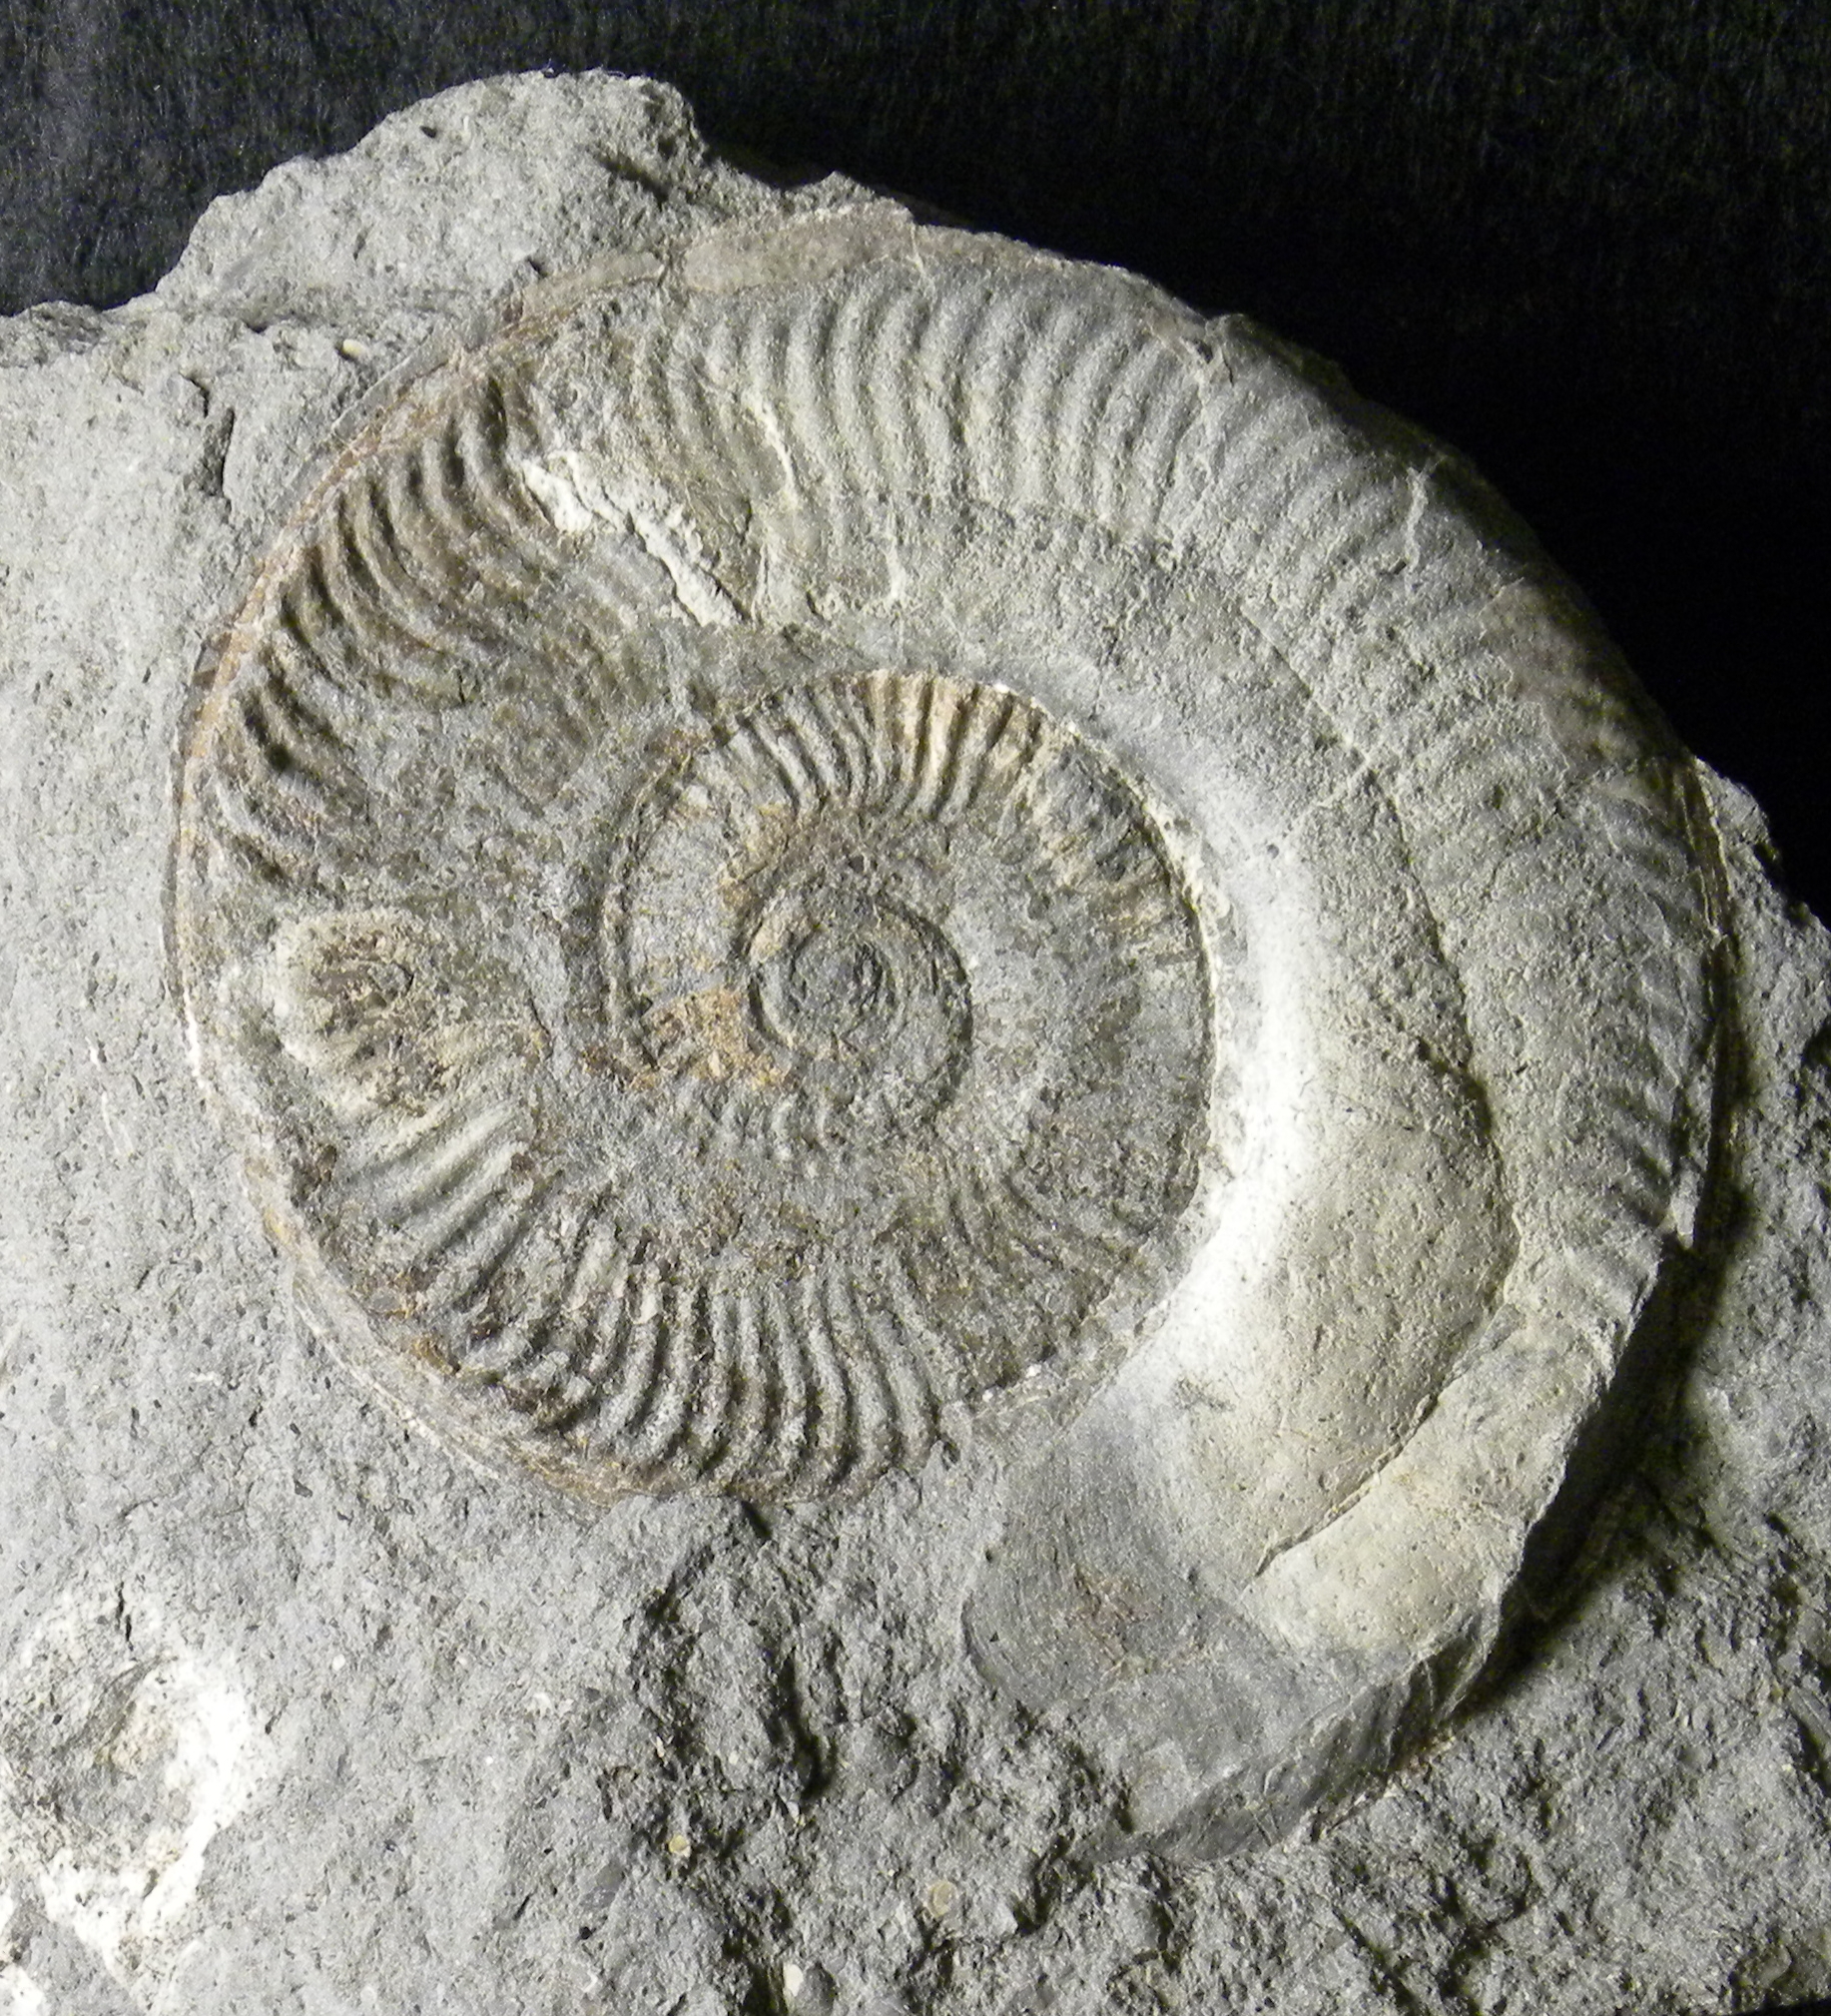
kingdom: Animalia
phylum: Mollusca
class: Cephalopoda
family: Hildoceratidae
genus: Pseudogrammoceras
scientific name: Pseudogrammoceras doerntense
